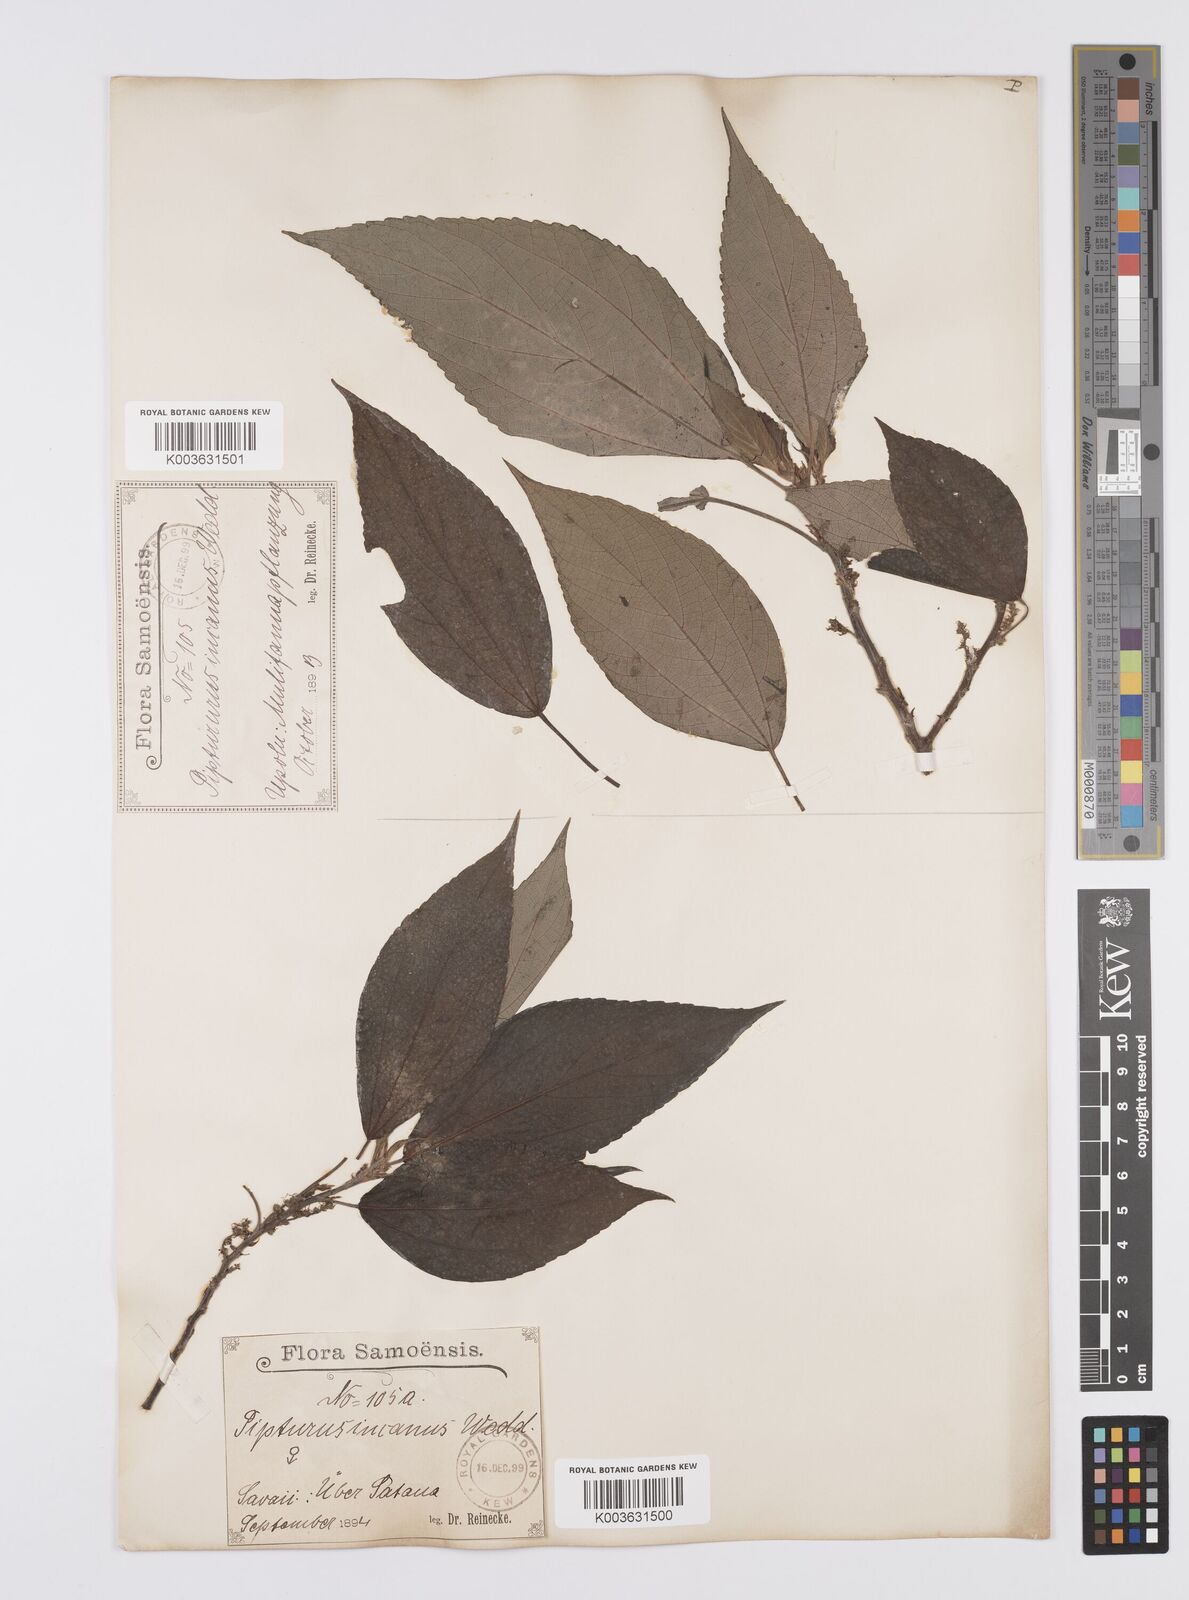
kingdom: Plantae
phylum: Tracheophyta
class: Magnoliopsida
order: Rosales
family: Urticaceae
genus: Pipturus
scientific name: Pipturus argenteus
